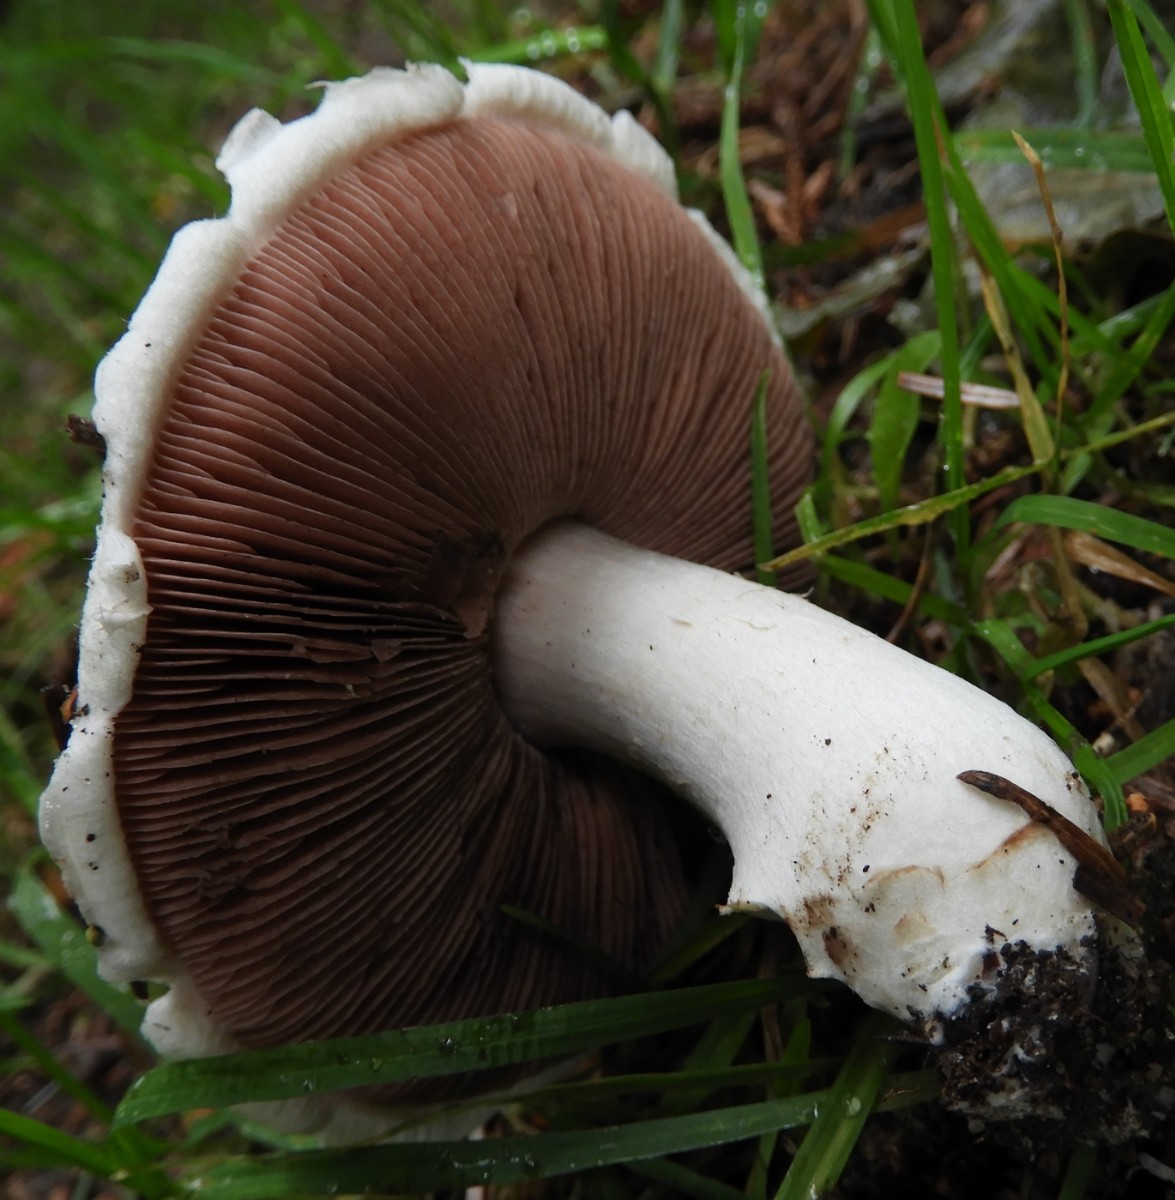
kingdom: Fungi
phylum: Basidiomycota
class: Agaricomycetes
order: Agaricales
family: Agaricaceae
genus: Agaricus
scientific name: Agaricus campestris
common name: mark-champignon
